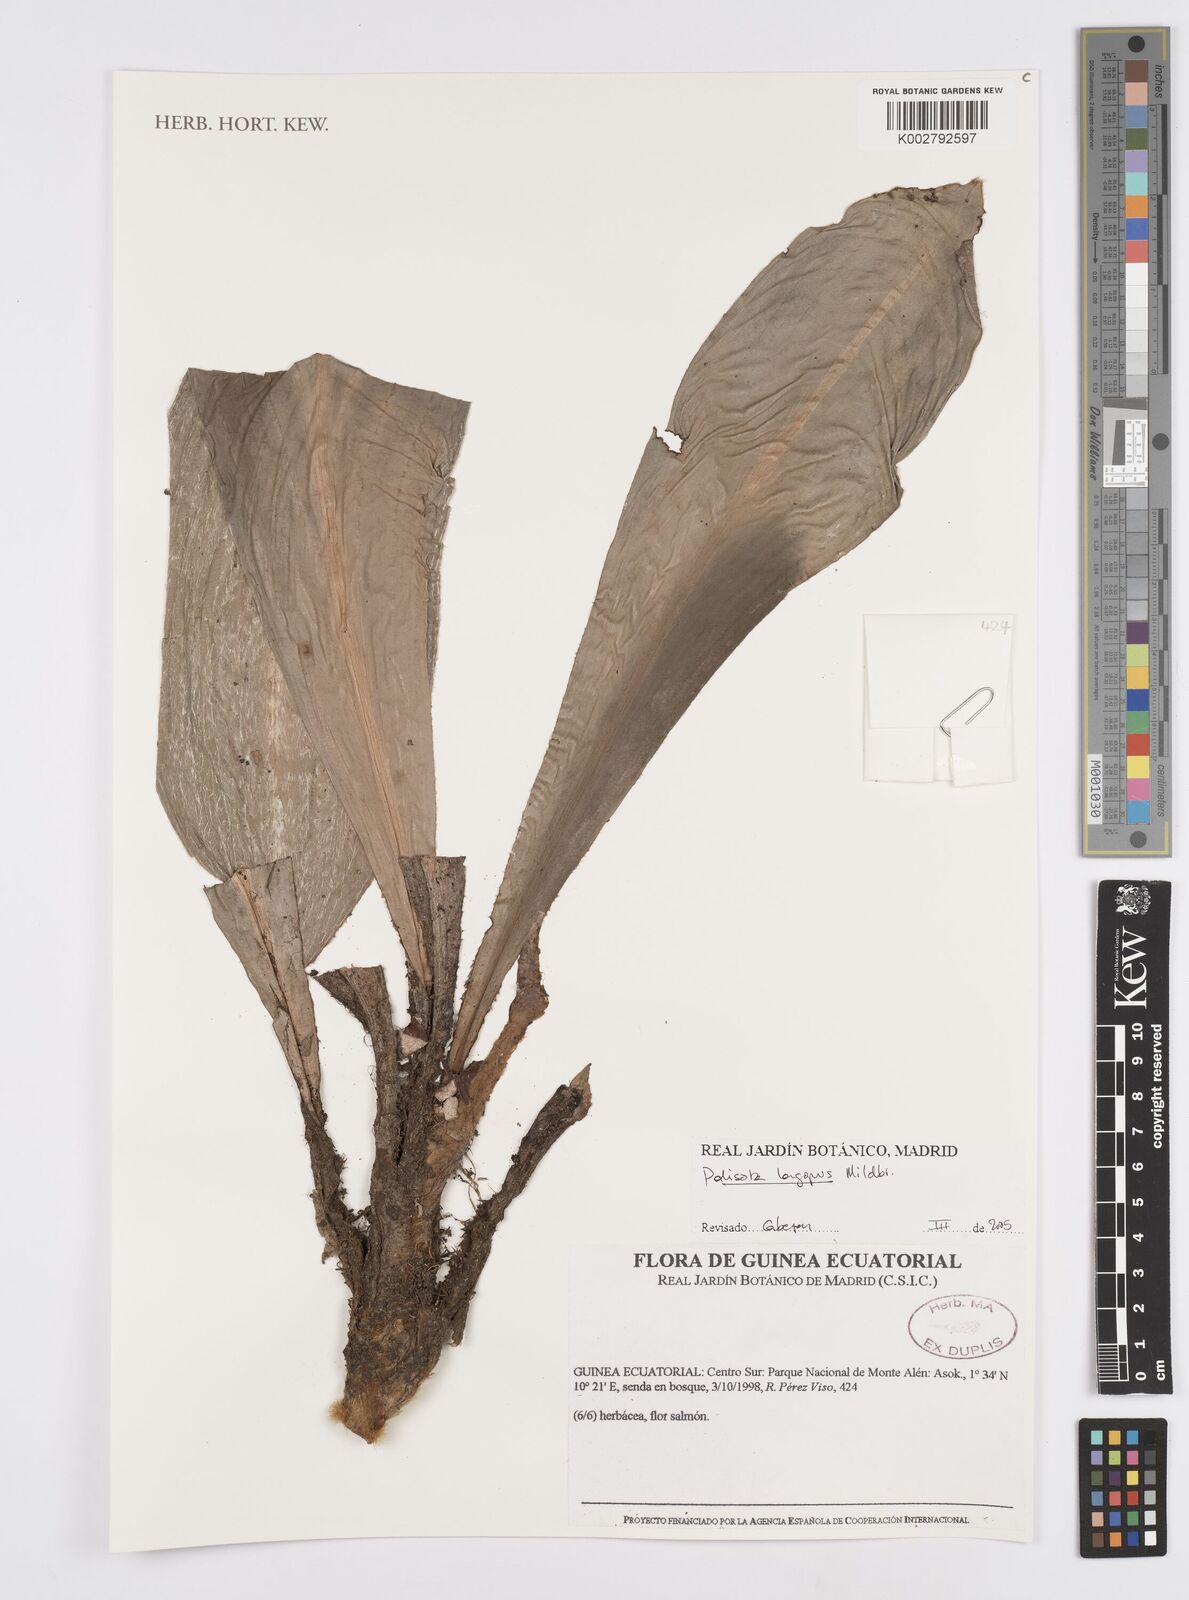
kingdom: Plantae
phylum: Tracheophyta
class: Liliopsida
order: Commelinales
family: Commelinaceae
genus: Palisota
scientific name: Palisota lagopus
